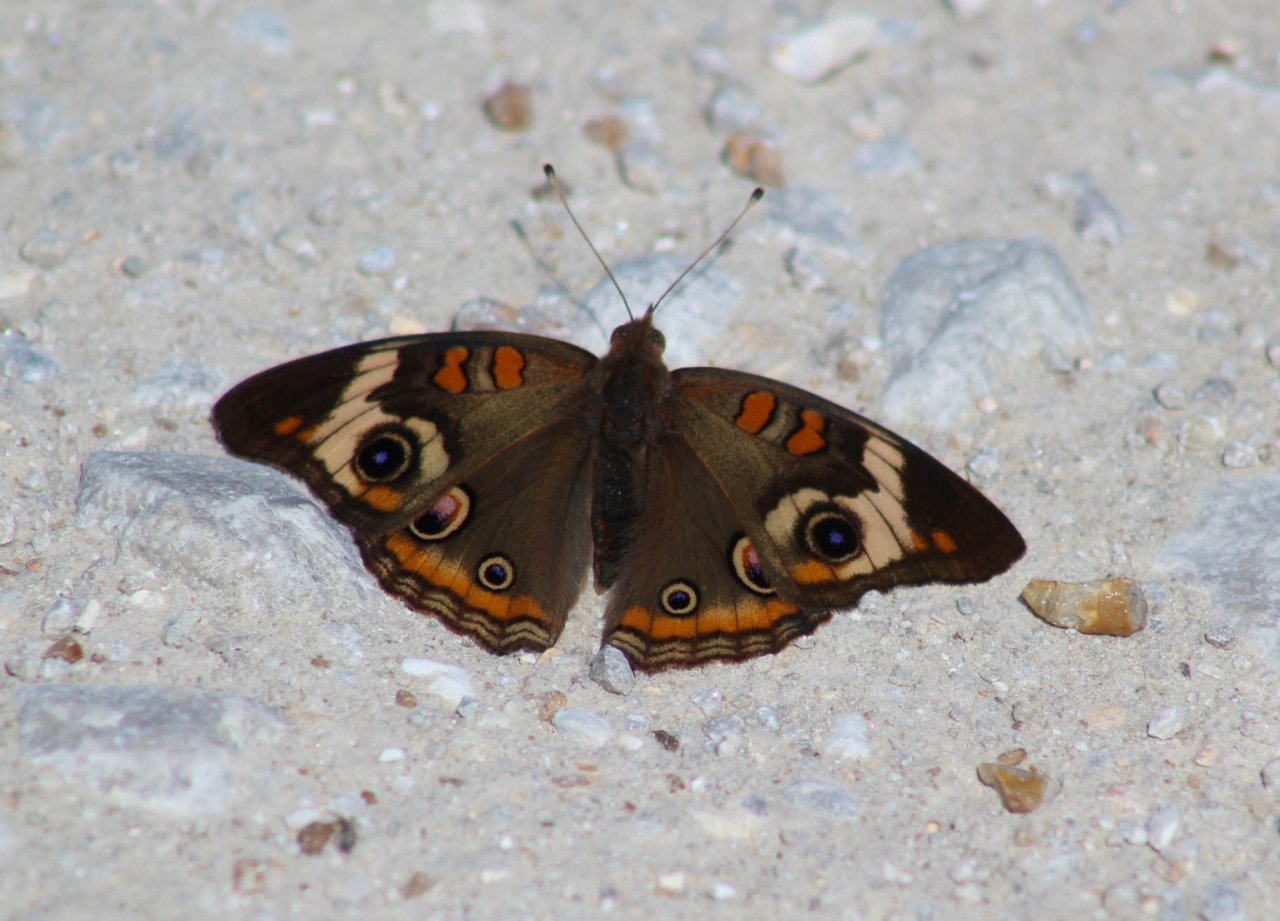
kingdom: Animalia
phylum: Arthropoda
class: Insecta
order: Lepidoptera
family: Nymphalidae
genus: Junonia
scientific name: Junonia coenia
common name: Common Buckeye
